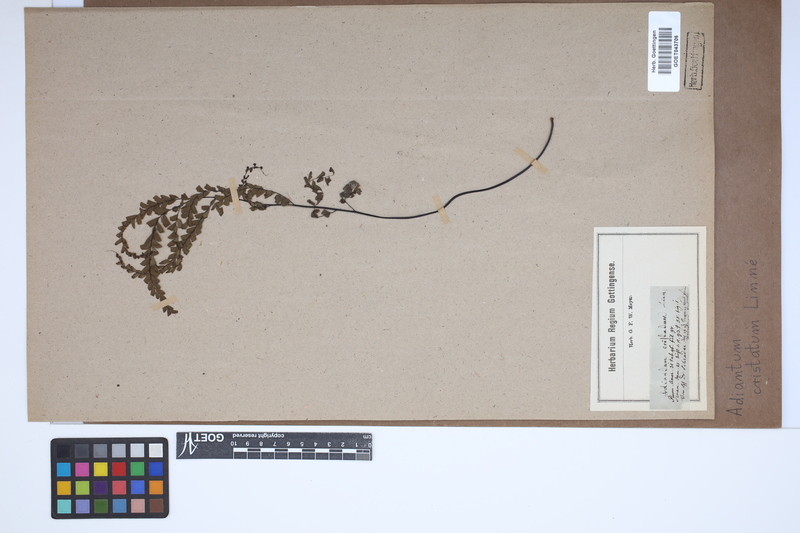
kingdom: Plantae
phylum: Tracheophyta
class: Polypodiopsida
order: Polypodiales
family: Pteridaceae
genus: Adiantum
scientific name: Adiantum pyramidale
